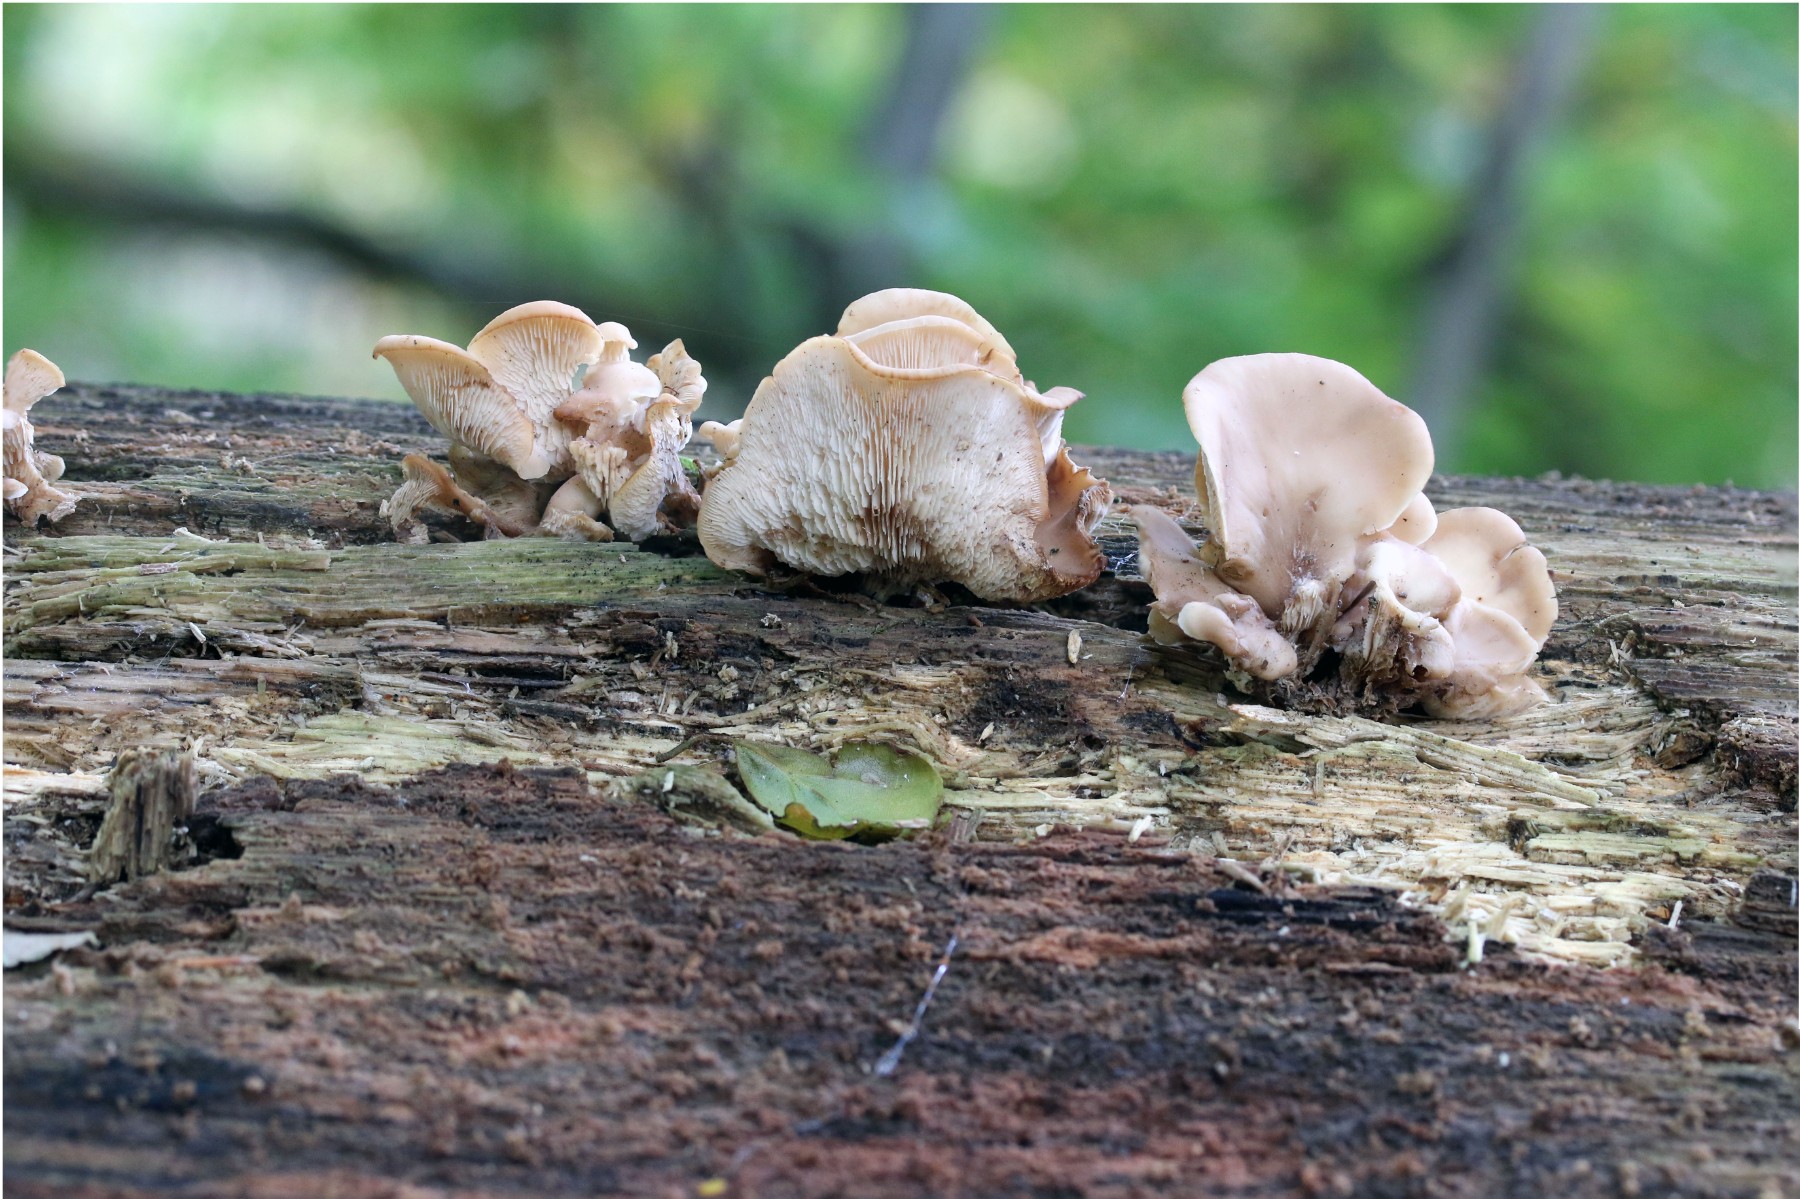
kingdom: Fungi
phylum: Basidiomycota
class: Agaricomycetes
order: Russulales
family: Auriscalpiaceae
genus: Lentinellus
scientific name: Lentinellus cochleatus
